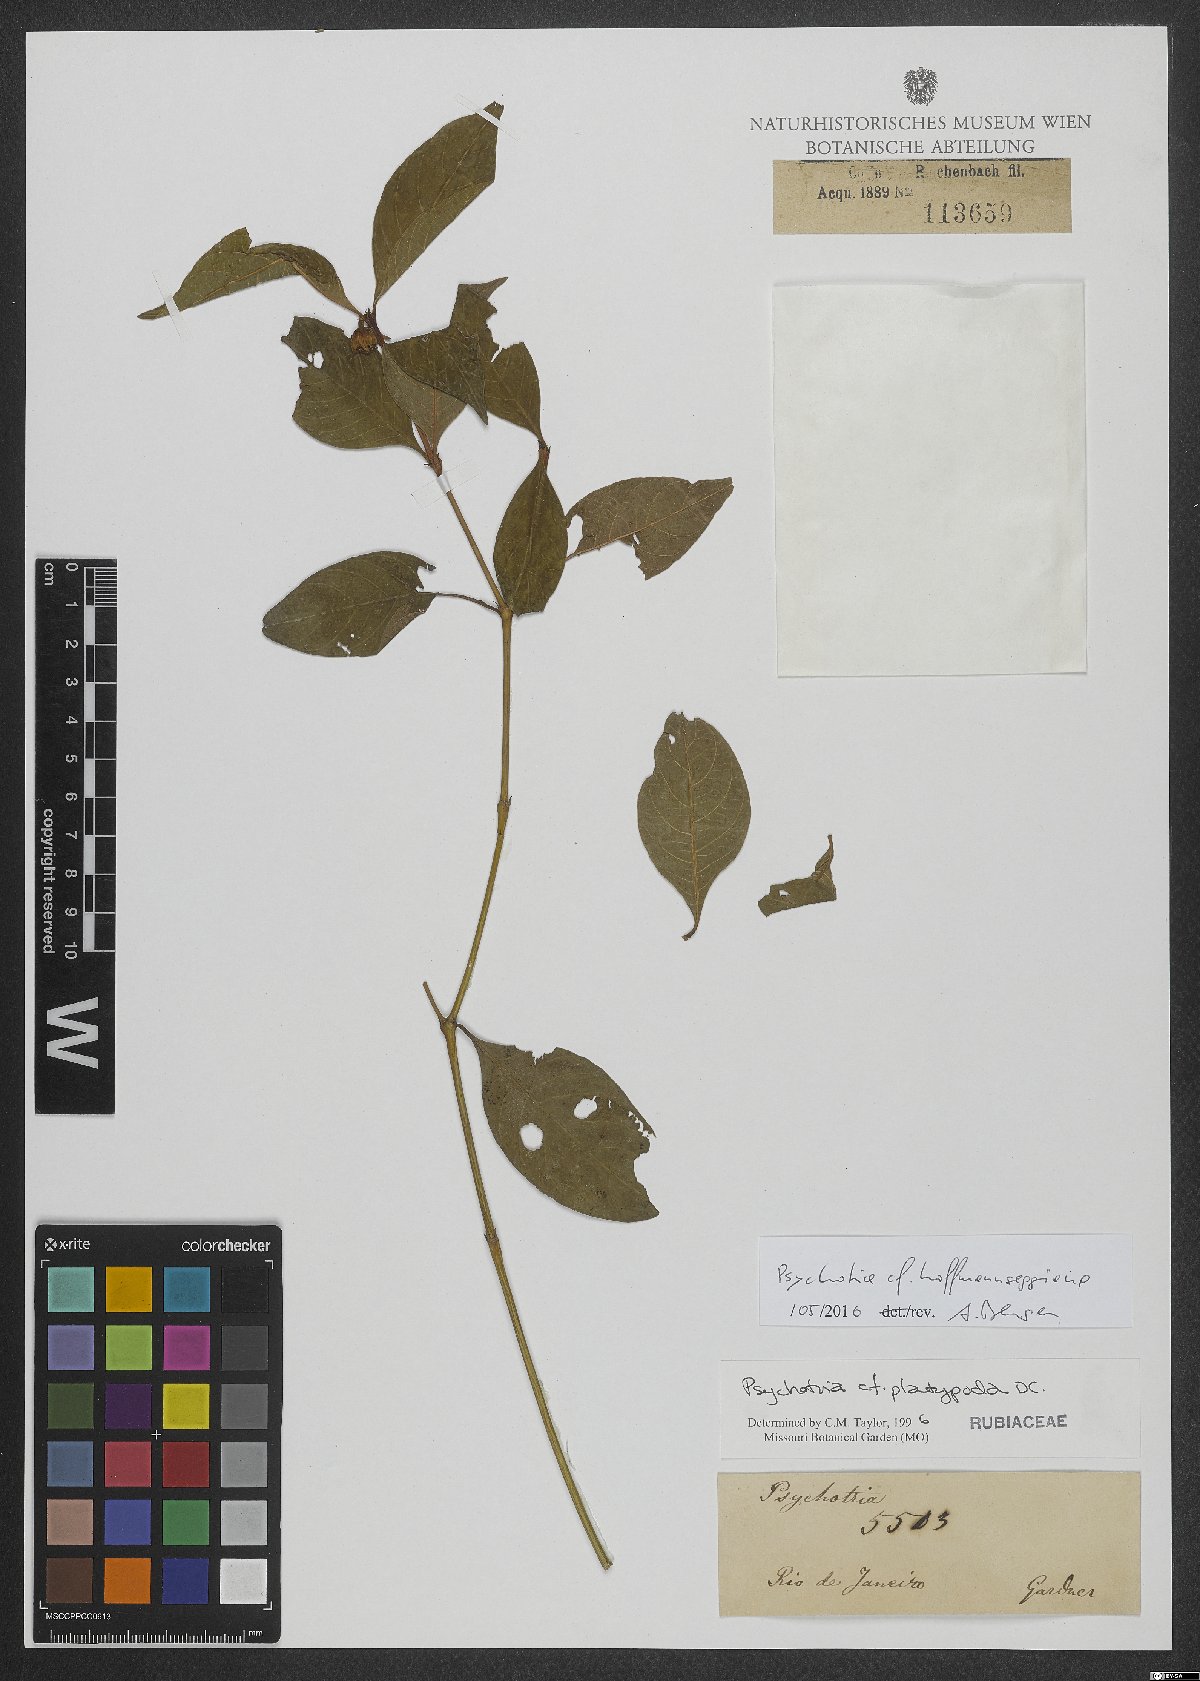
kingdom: Plantae
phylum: Tracheophyta
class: Magnoliopsida
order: Gentianales
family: Rubiaceae
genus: Palicourea
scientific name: Palicourea hoffmannseggiana
